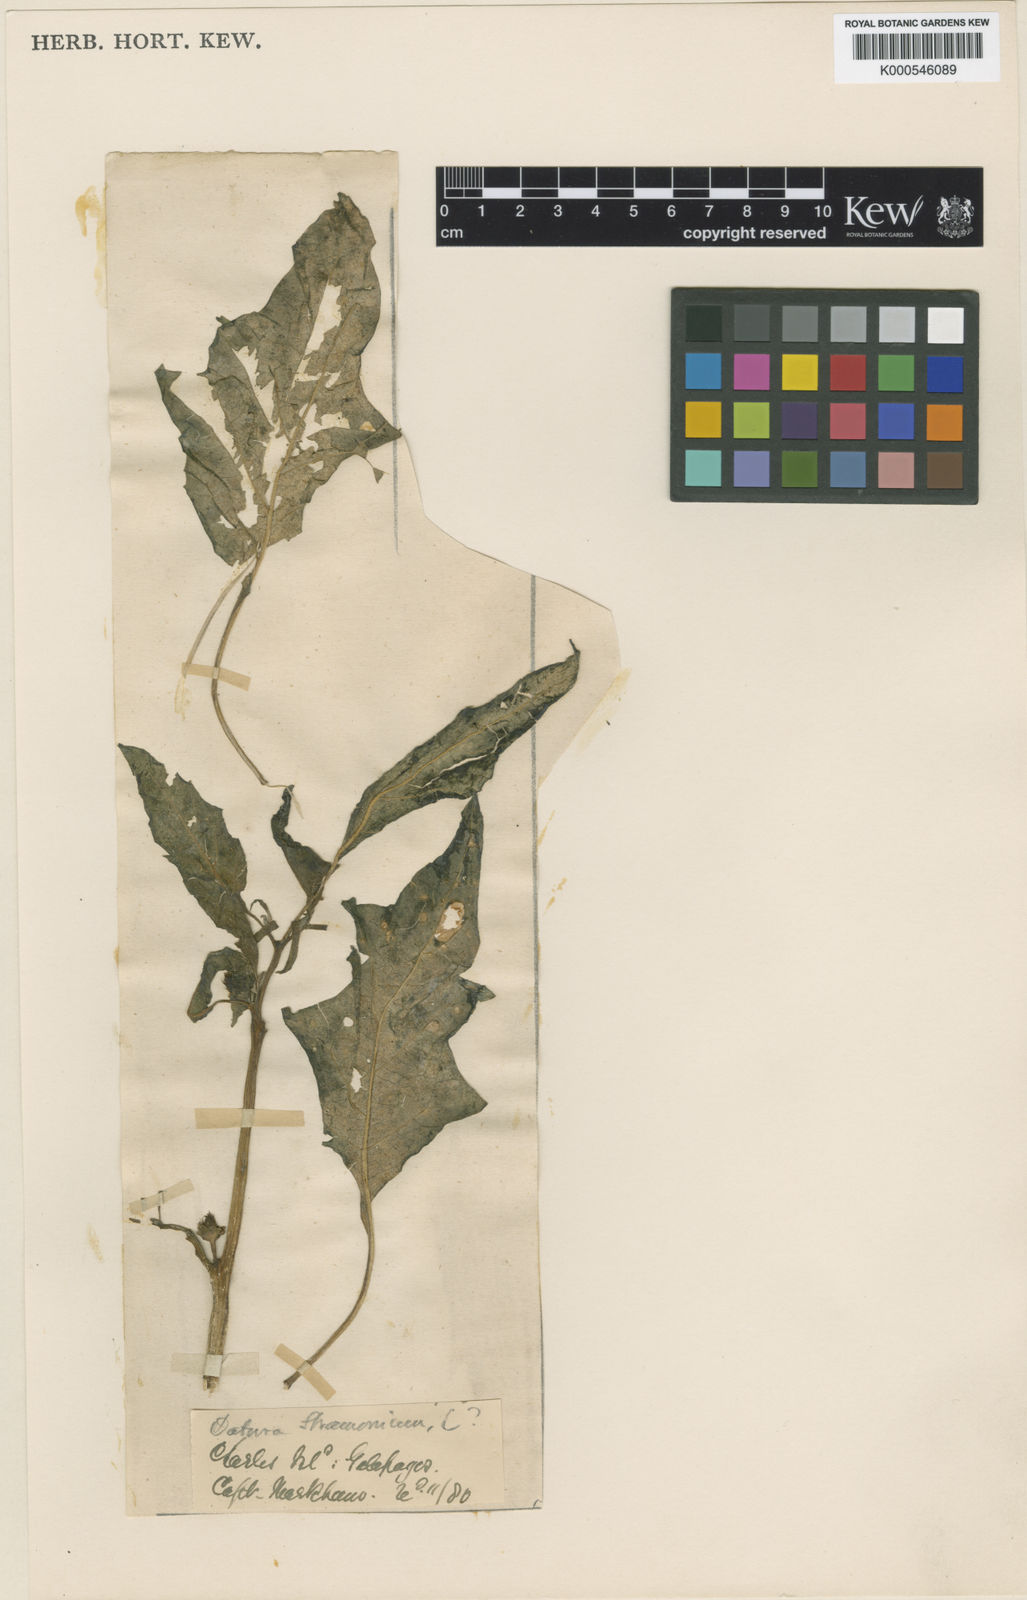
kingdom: Plantae
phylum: Tracheophyta
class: Magnoliopsida
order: Solanales
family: Solanaceae
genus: Datura
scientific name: Datura stramonium
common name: Thorn-apple
